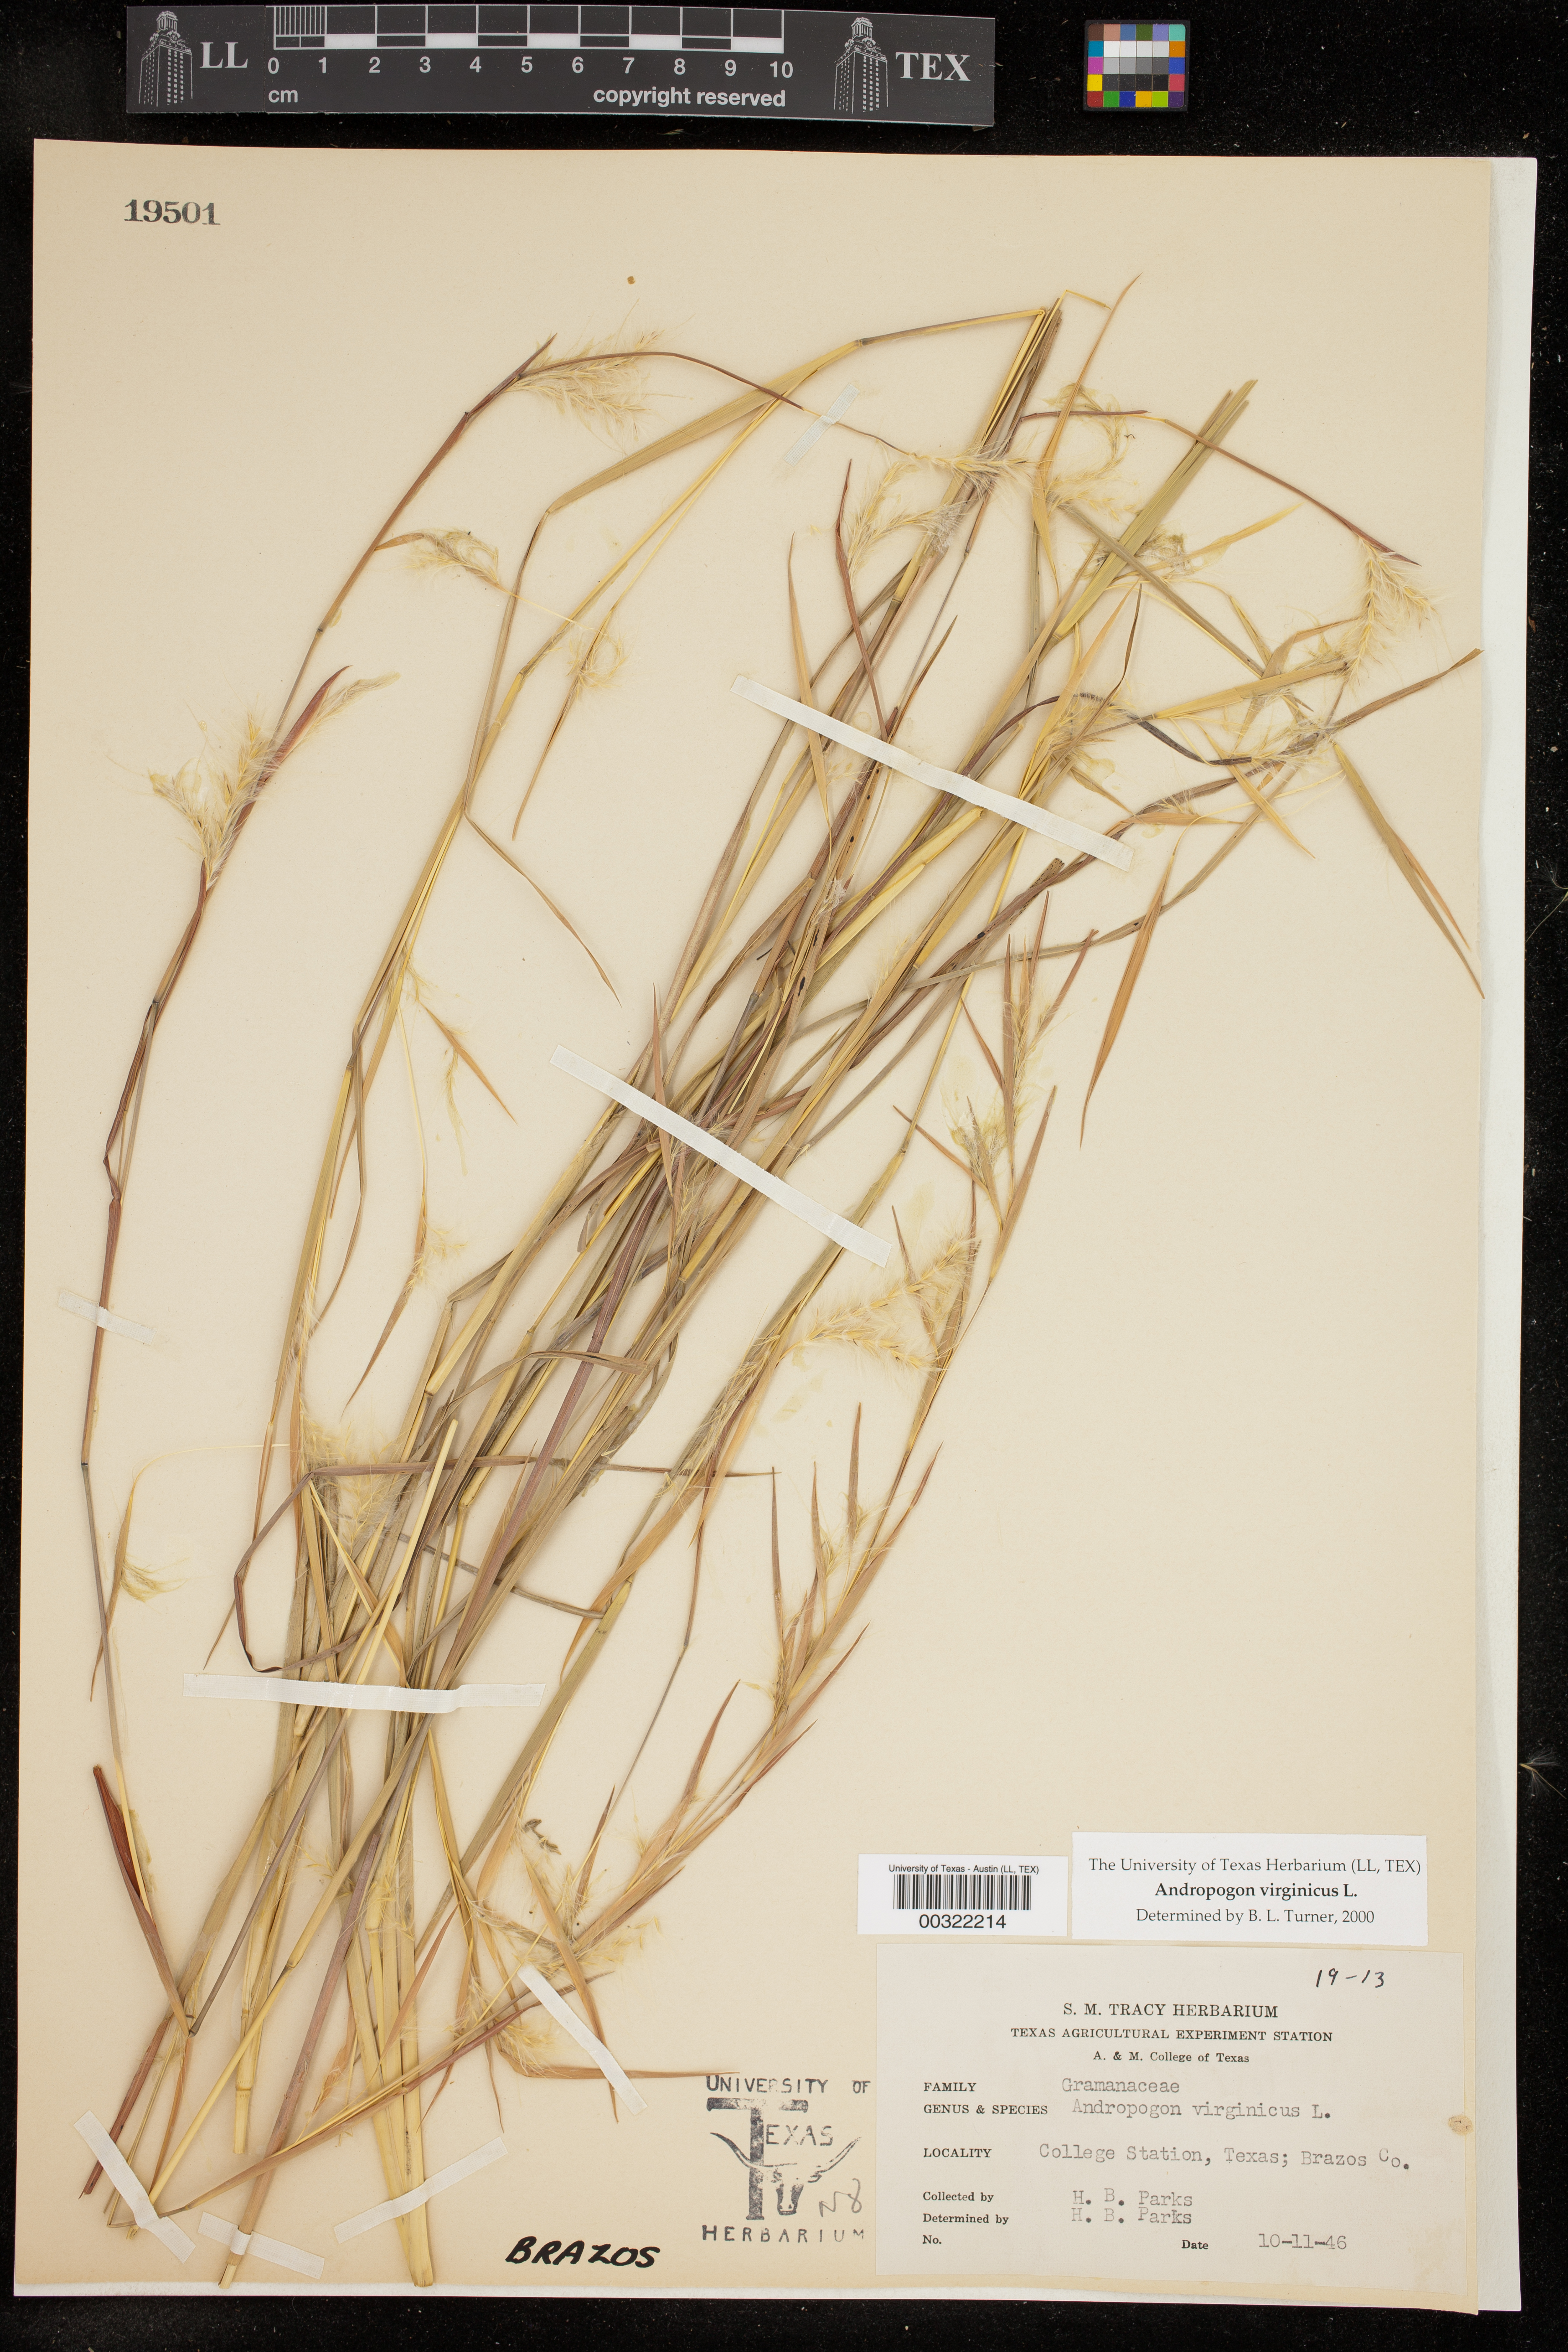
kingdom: Plantae
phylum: Tracheophyta
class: Liliopsida
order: Poales
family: Poaceae
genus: Andropogon
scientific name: Andropogon virginicus
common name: Broomsedge bluestem
